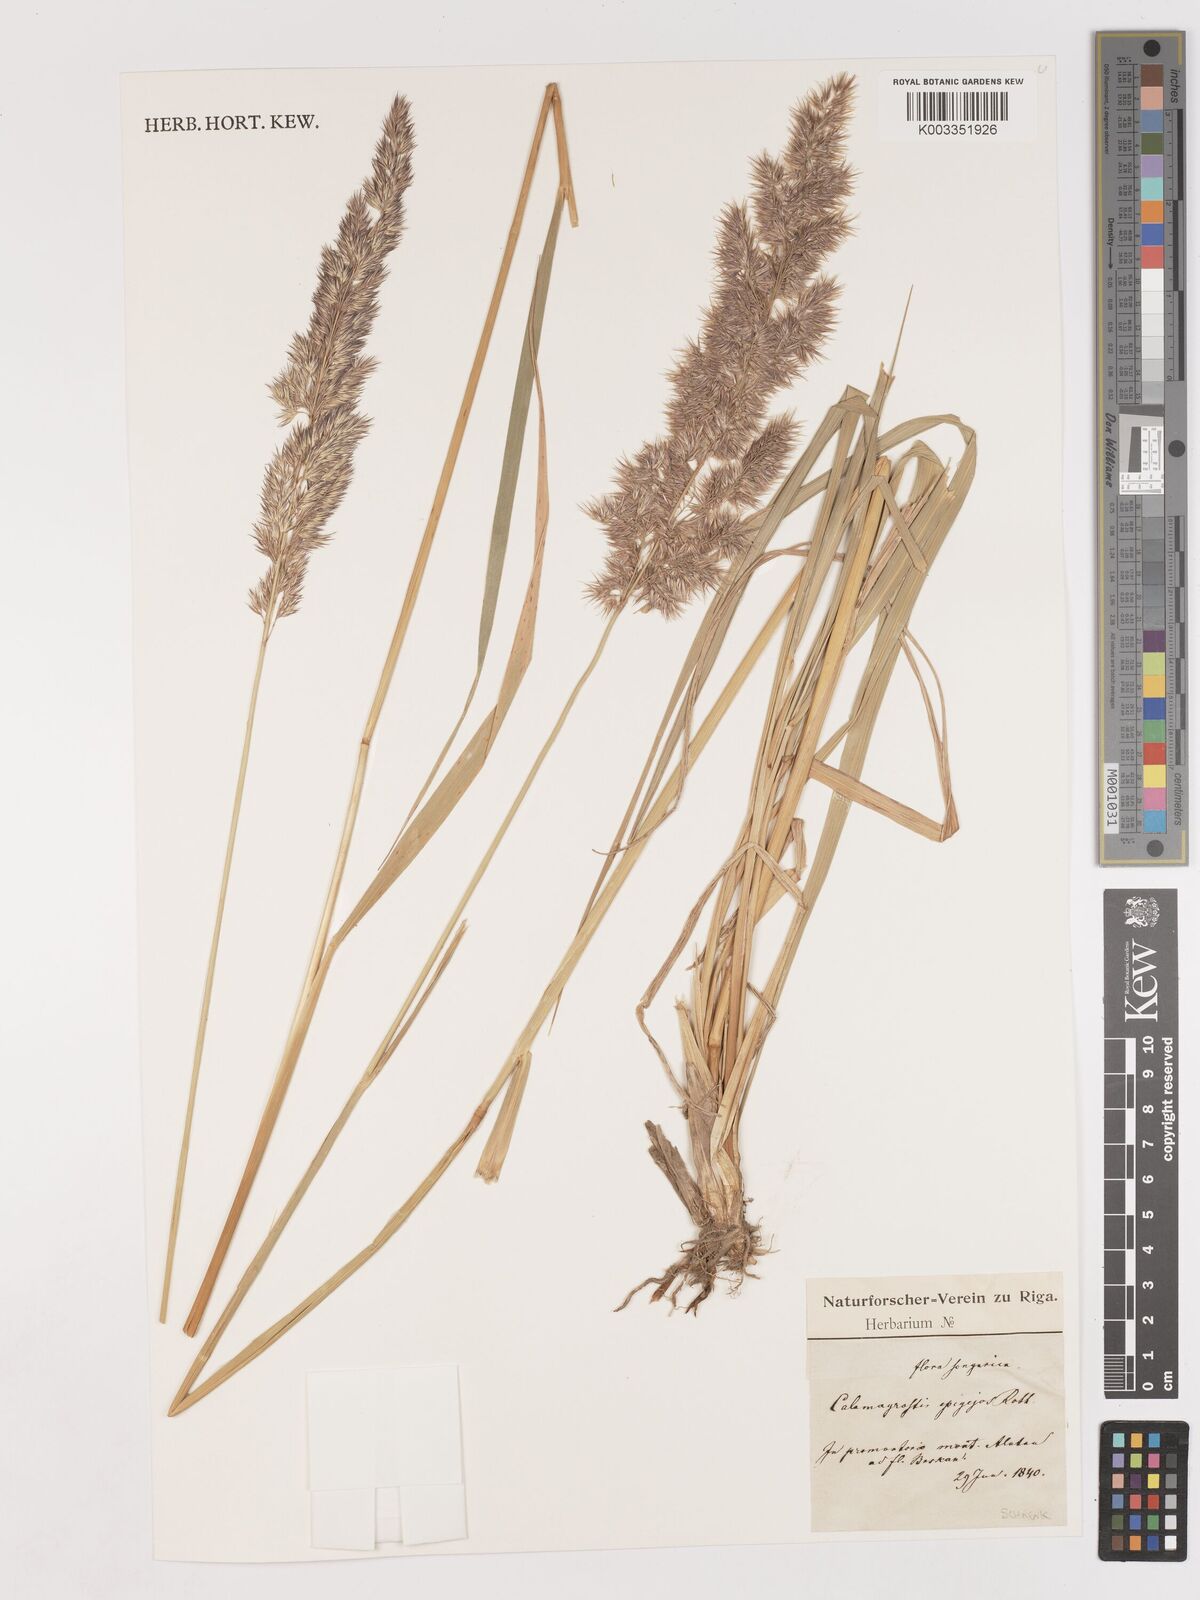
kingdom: Plantae
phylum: Tracheophyta
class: Liliopsida
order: Poales
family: Poaceae
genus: Calamagrostis
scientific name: Calamagrostis epigejos
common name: Wood small-reed
